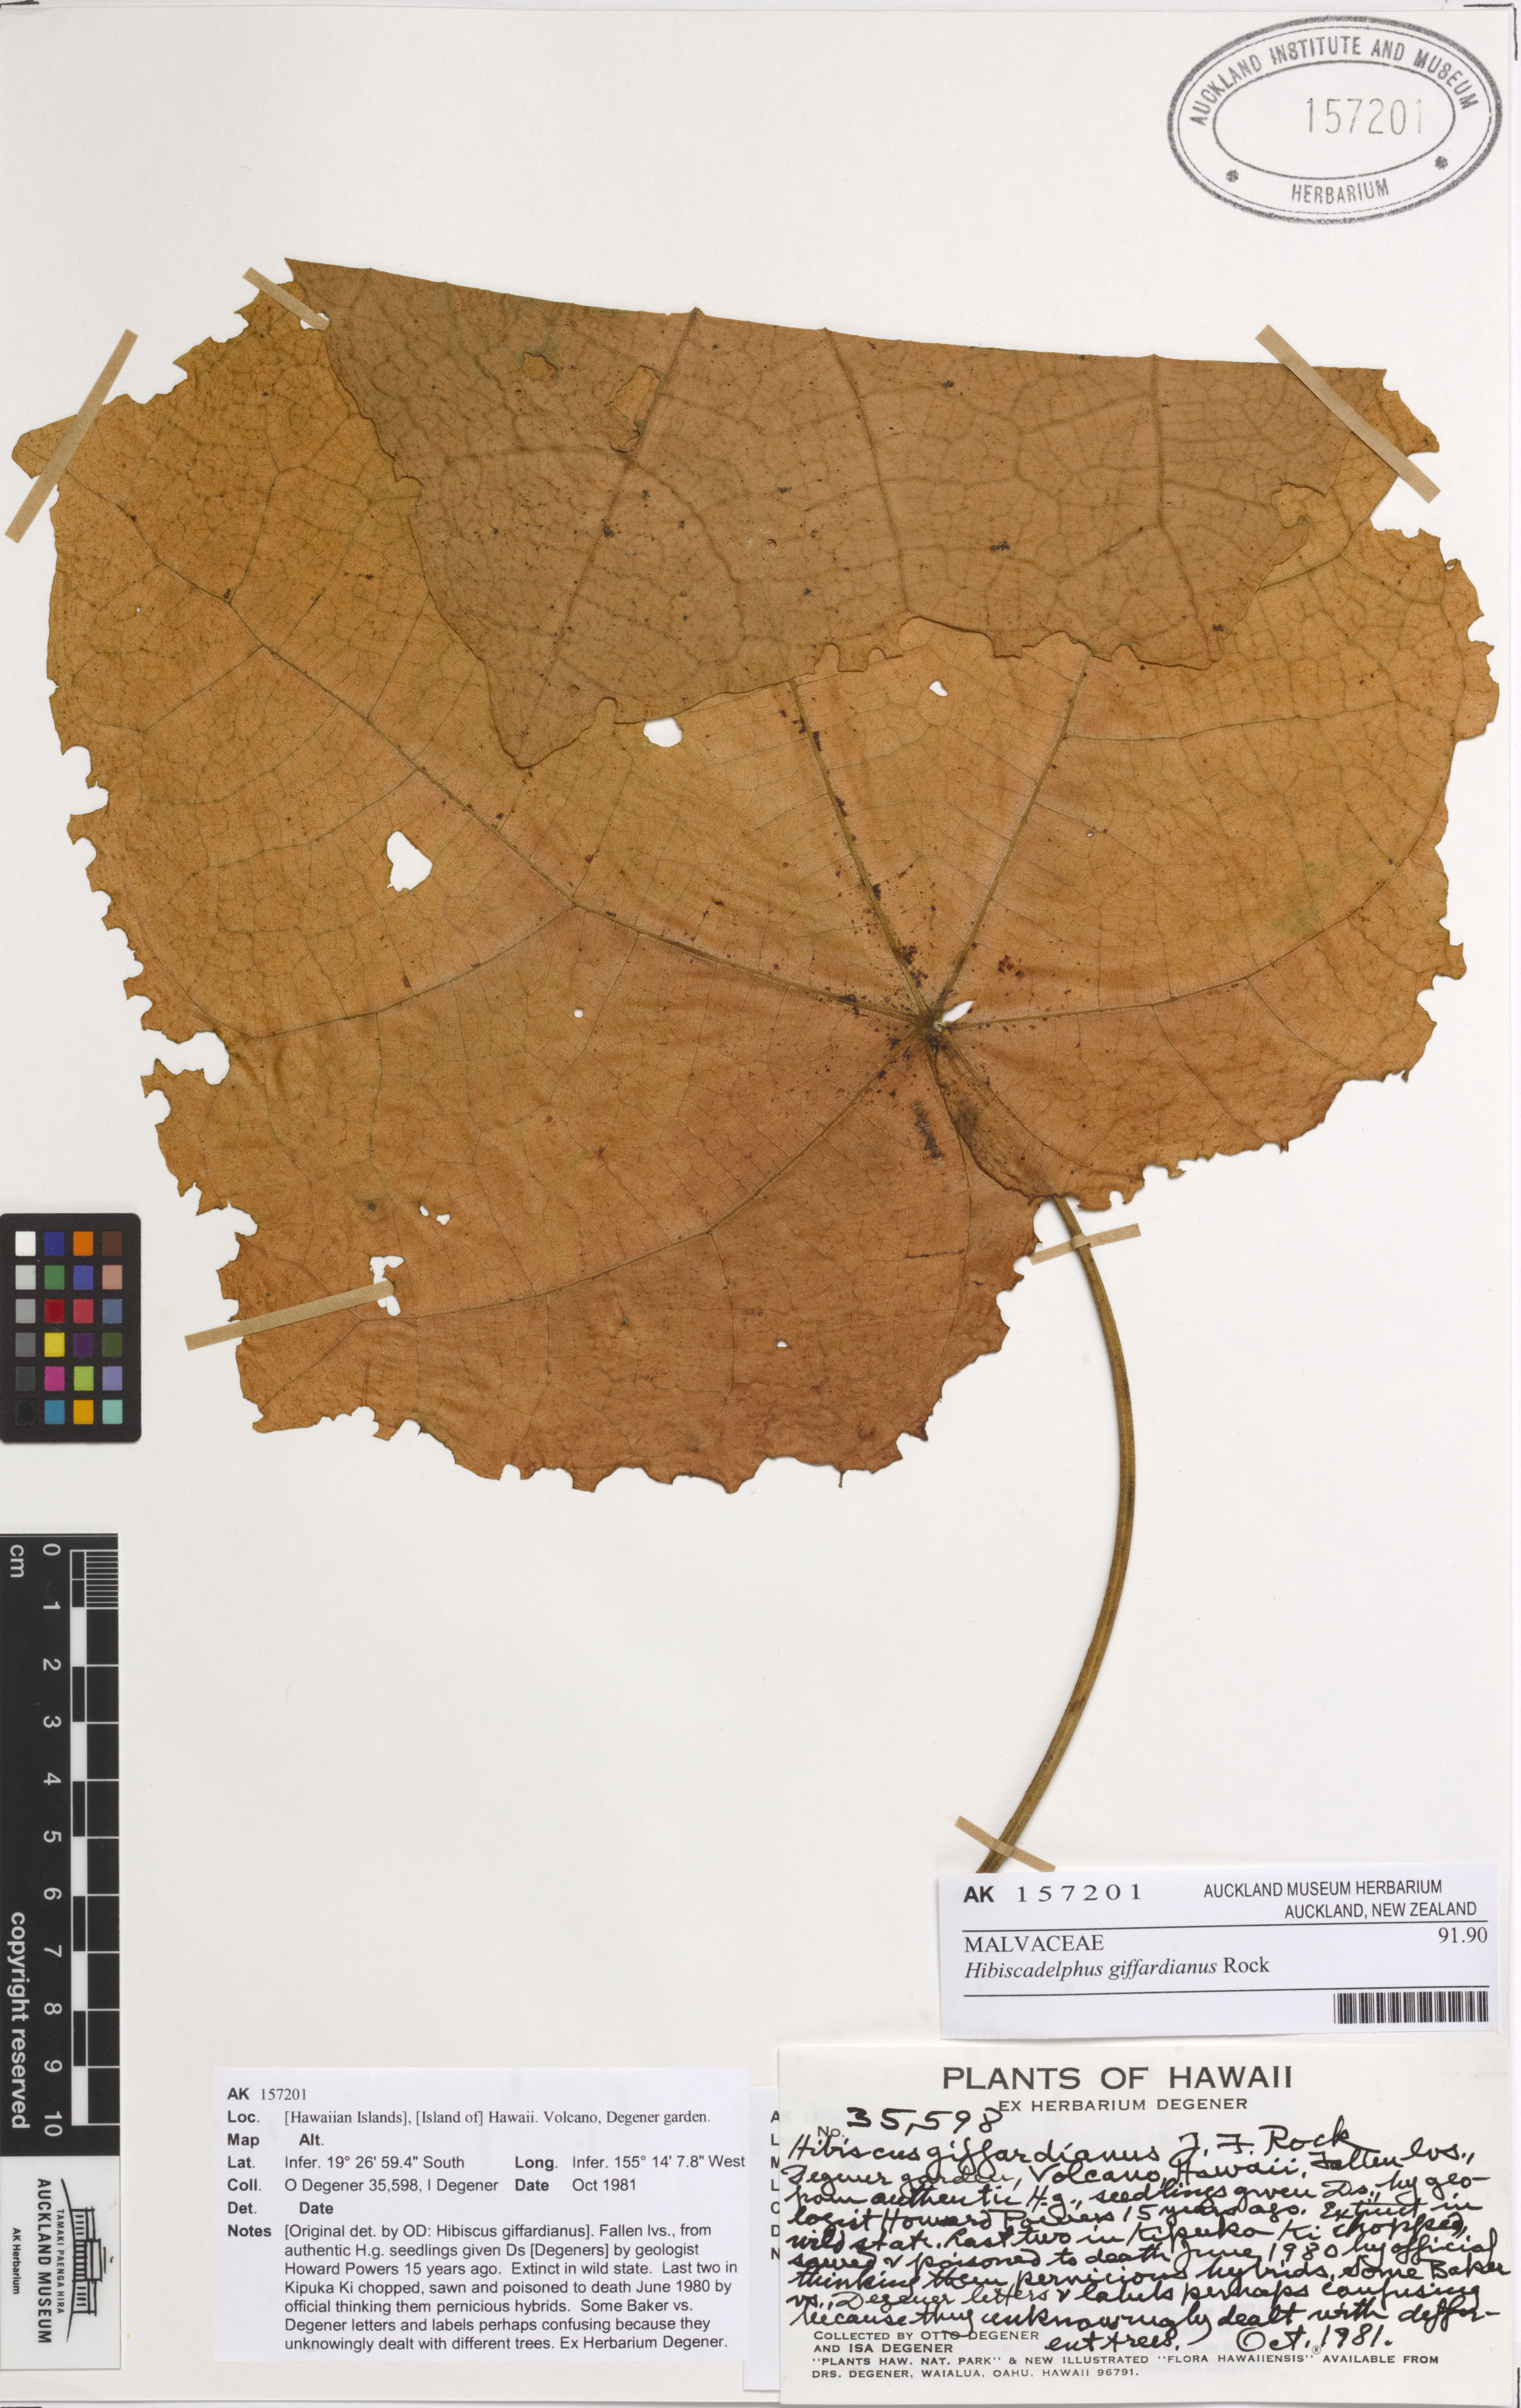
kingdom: Plantae
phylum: Tracheophyta
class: Magnoliopsida
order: Malvales
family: Malvaceae
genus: Hibiscadelphus
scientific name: Hibiscadelphus giffardianus
